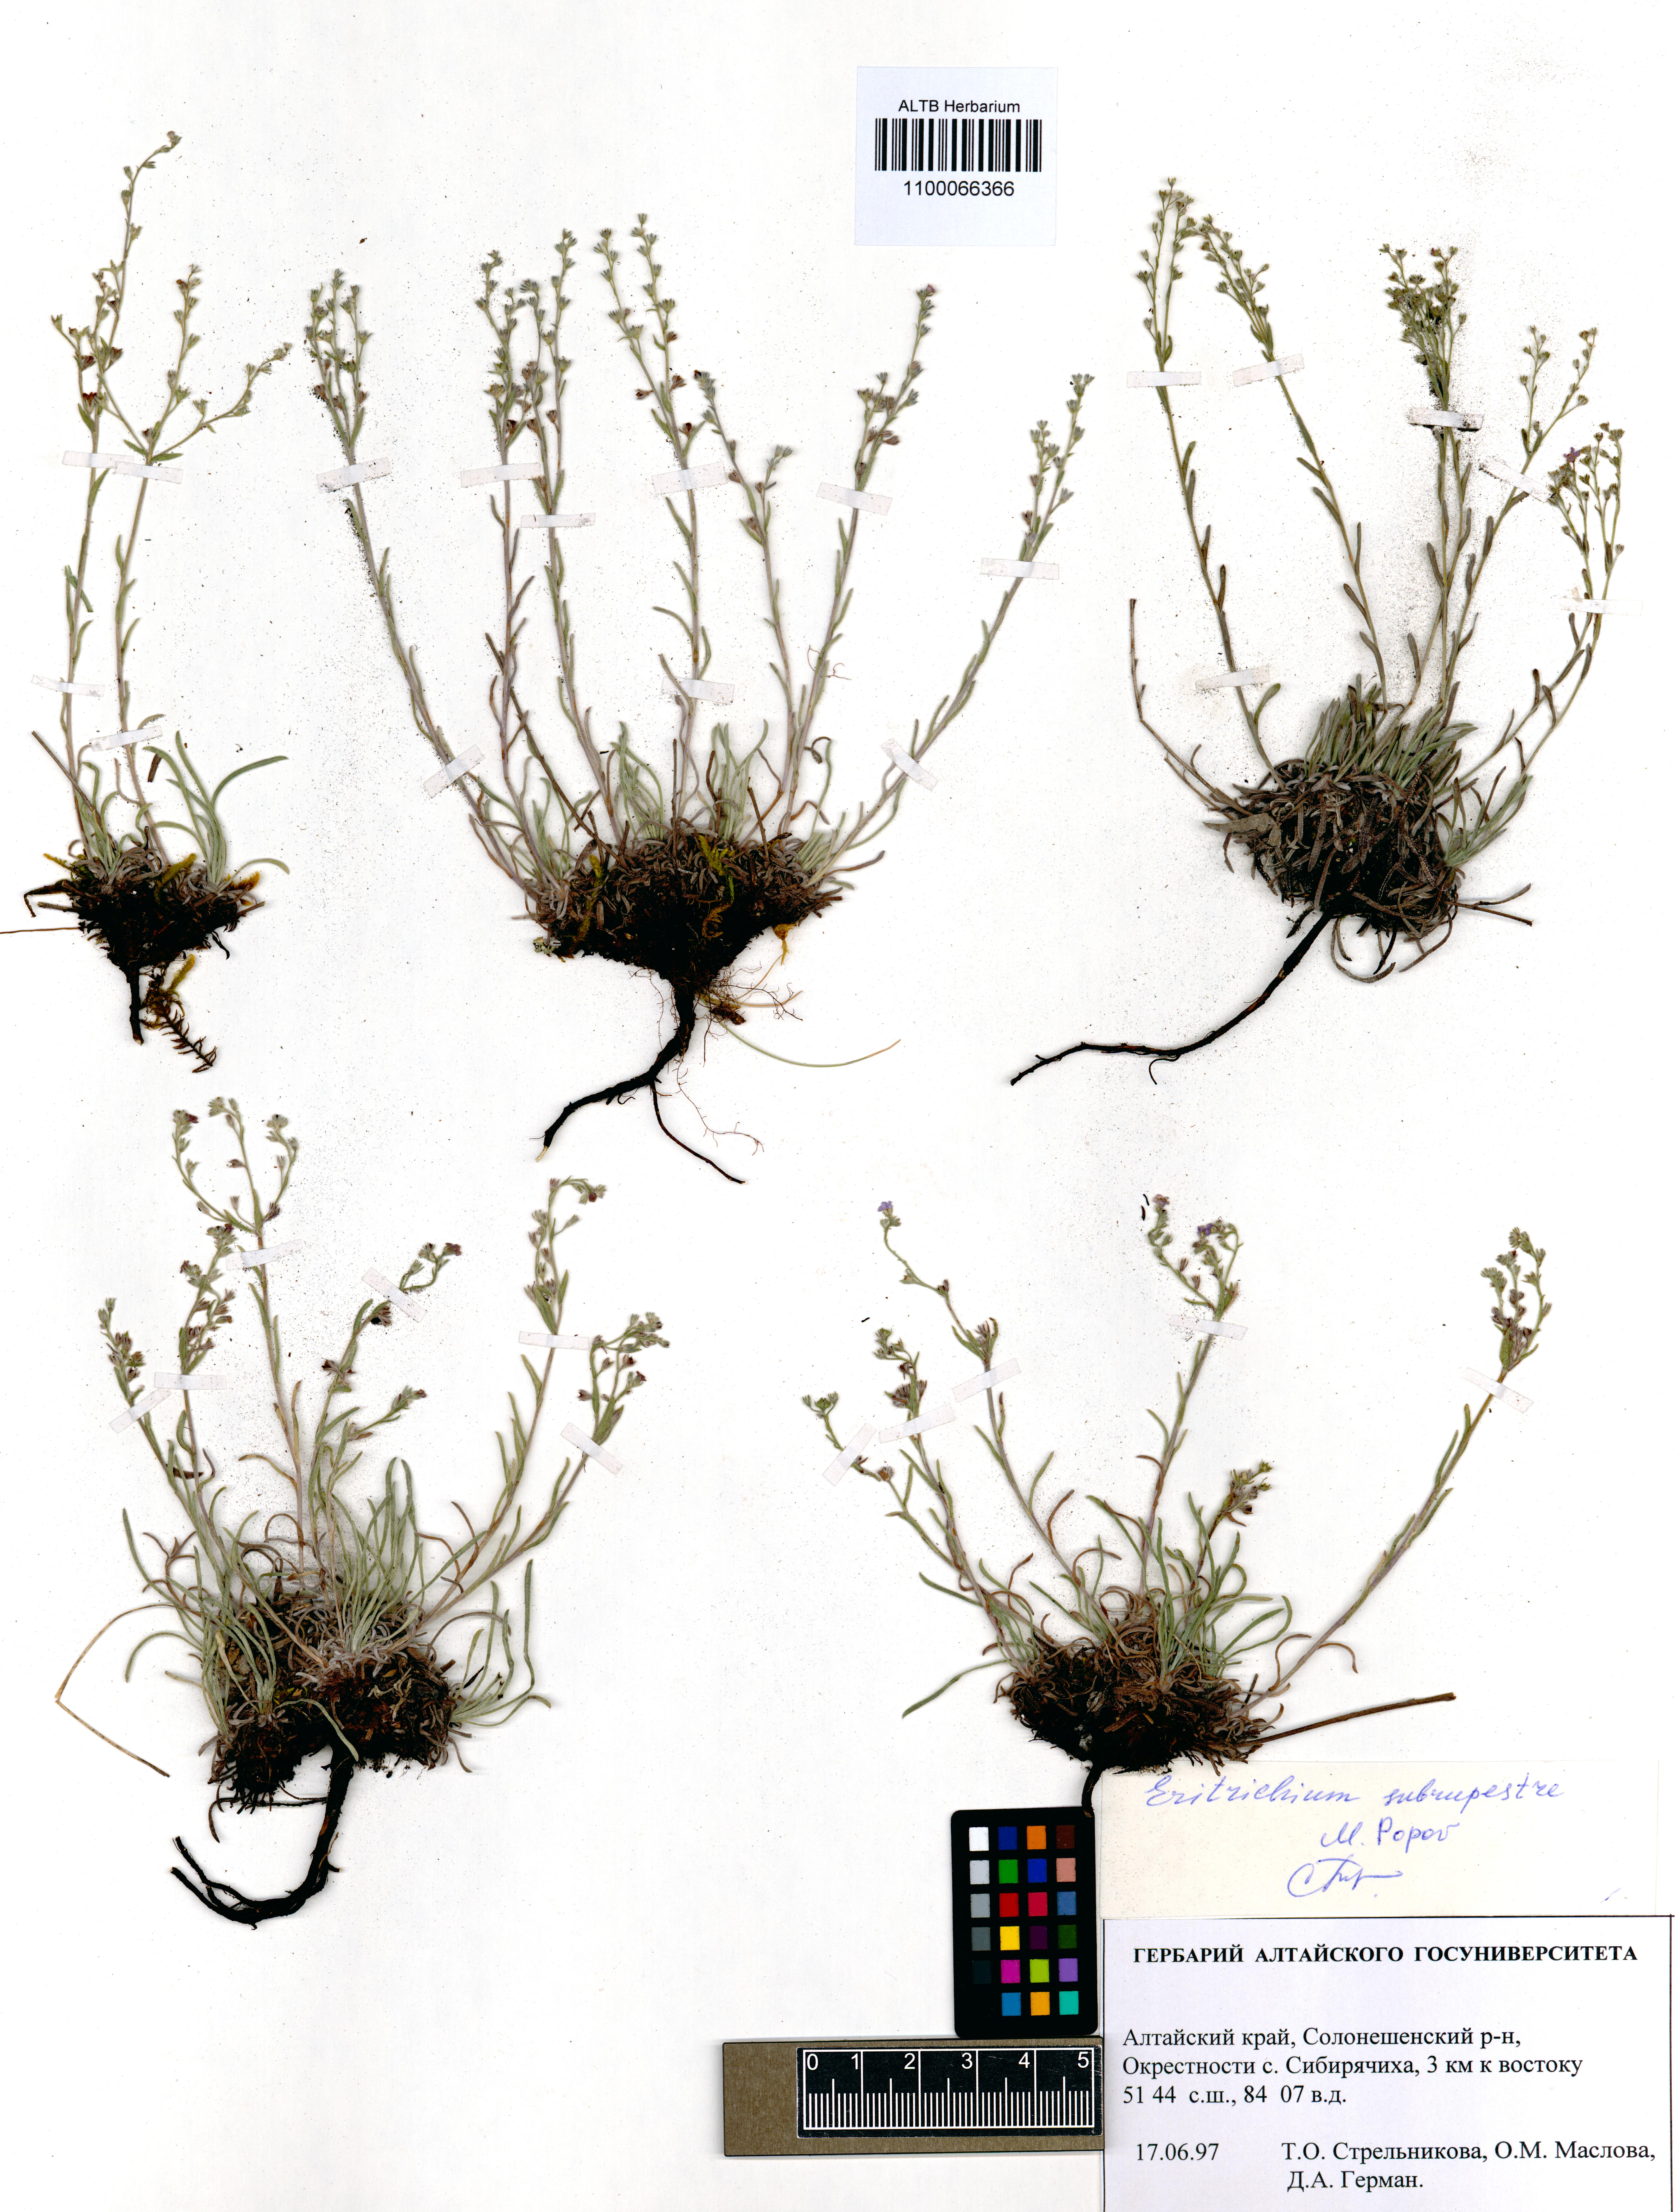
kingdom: Plantae
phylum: Tracheophyta
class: Magnoliopsida
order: Boraginales
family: Boraginaceae
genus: Eritrichium
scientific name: Eritrichium pauciflorum
